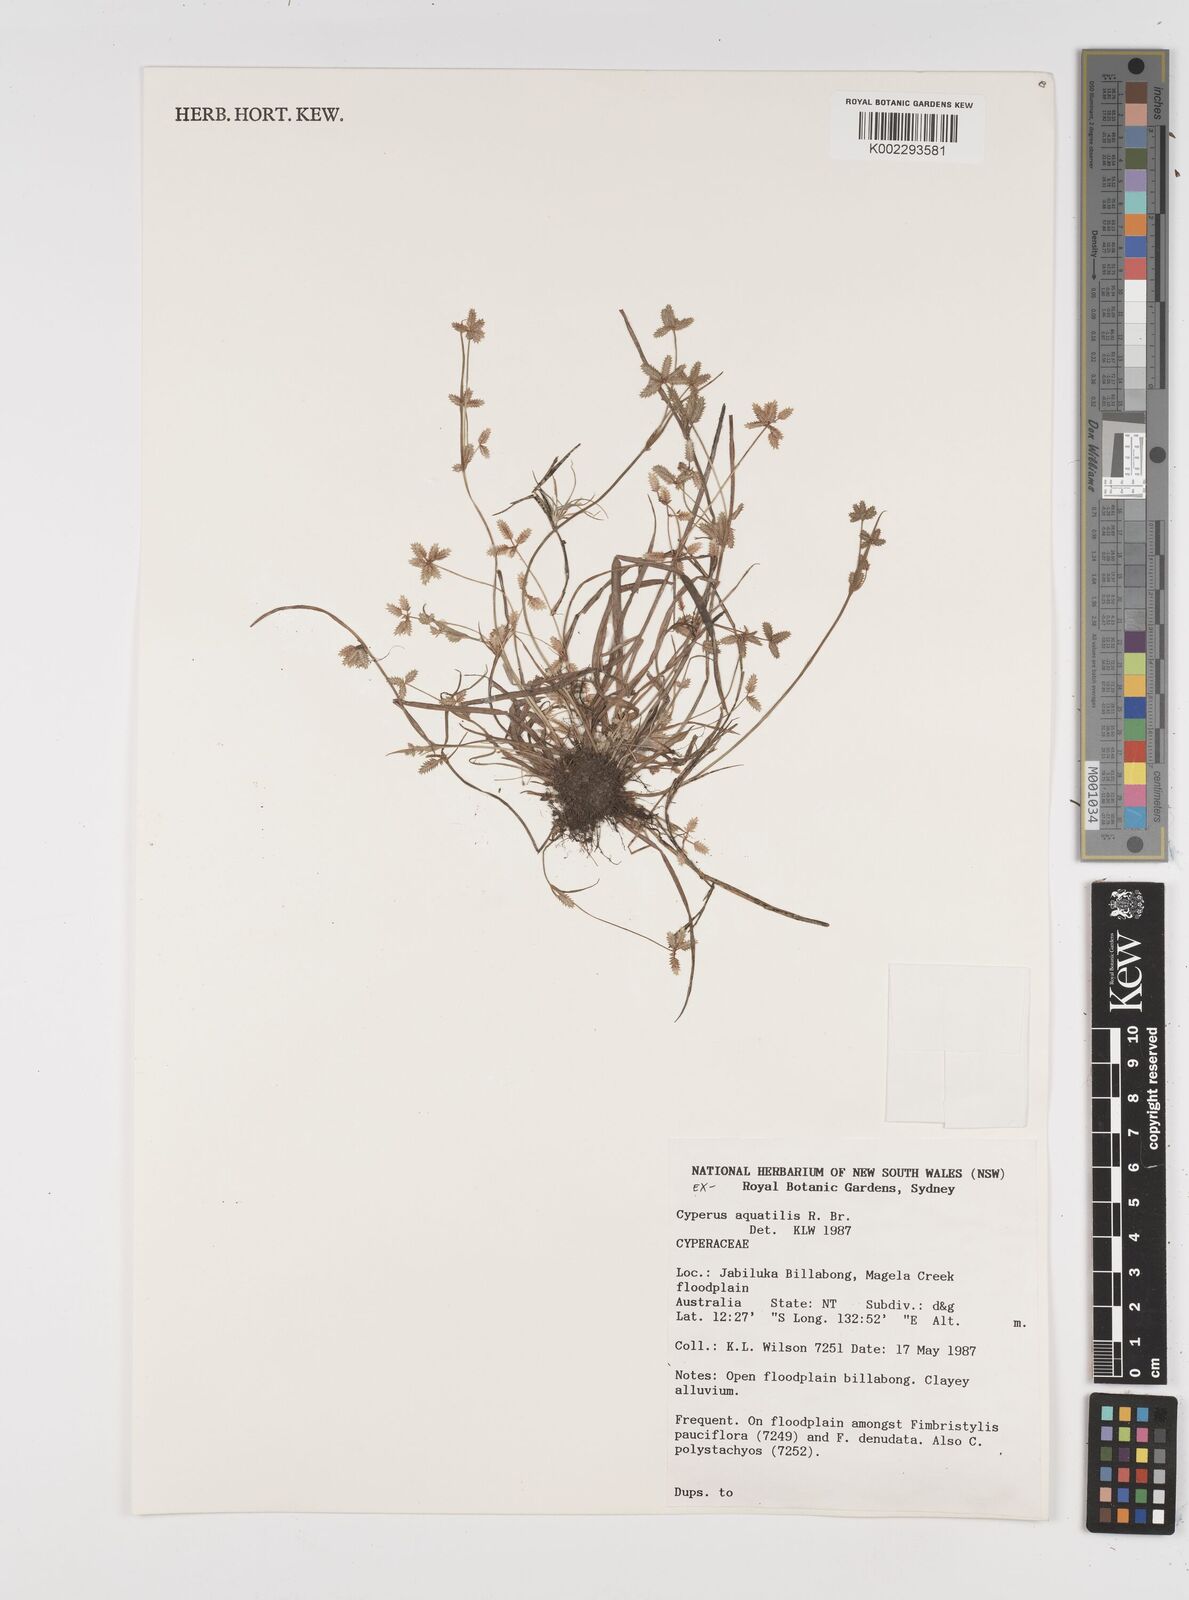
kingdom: Plantae
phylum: Tracheophyta
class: Liliopsida
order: Poales
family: Cyperaceae
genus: Cyperus
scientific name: Cyperus aquatilis
